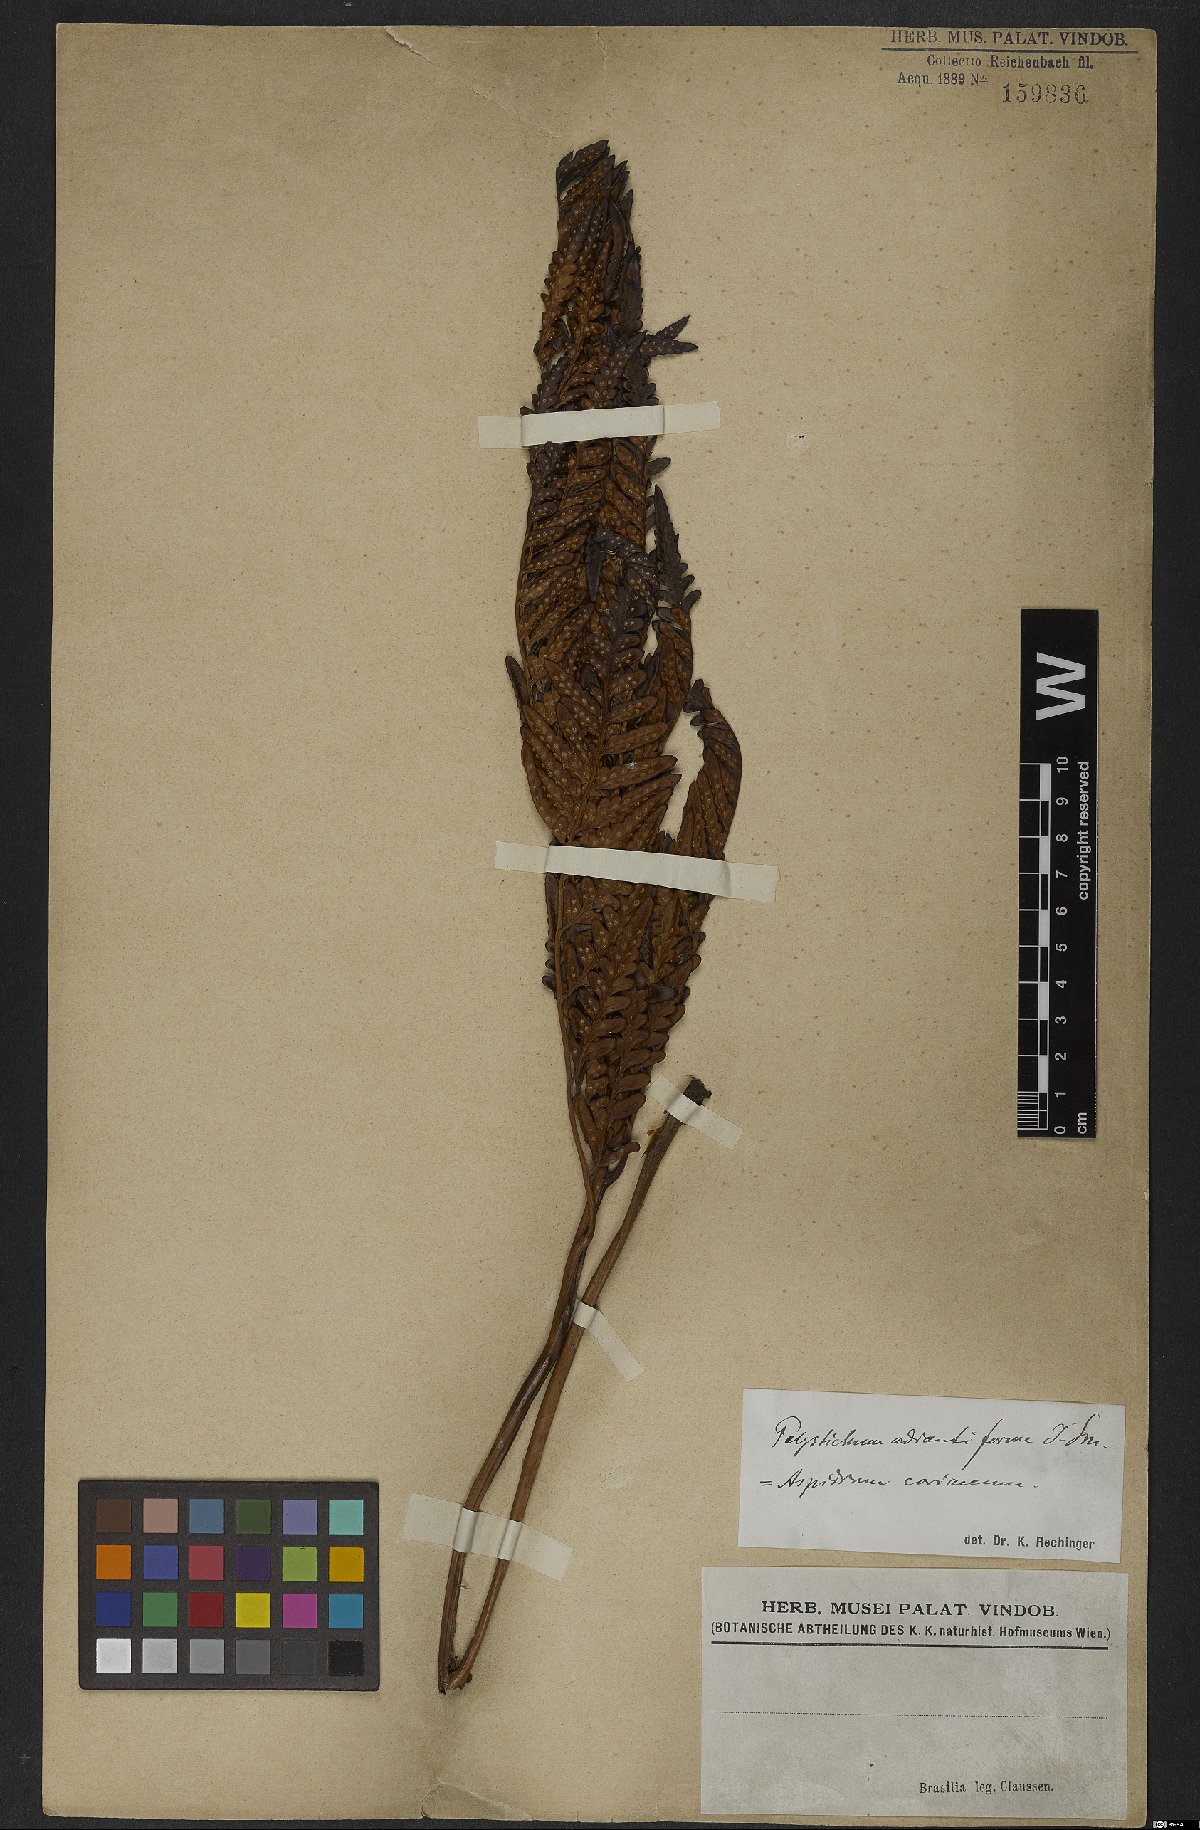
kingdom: Plantae
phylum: Tracheophyta
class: Polypodiopsida
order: Polypodiales
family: Dryopteridaceae
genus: Rumohra
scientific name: Rumohra adiantiformis
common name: Leather fern
